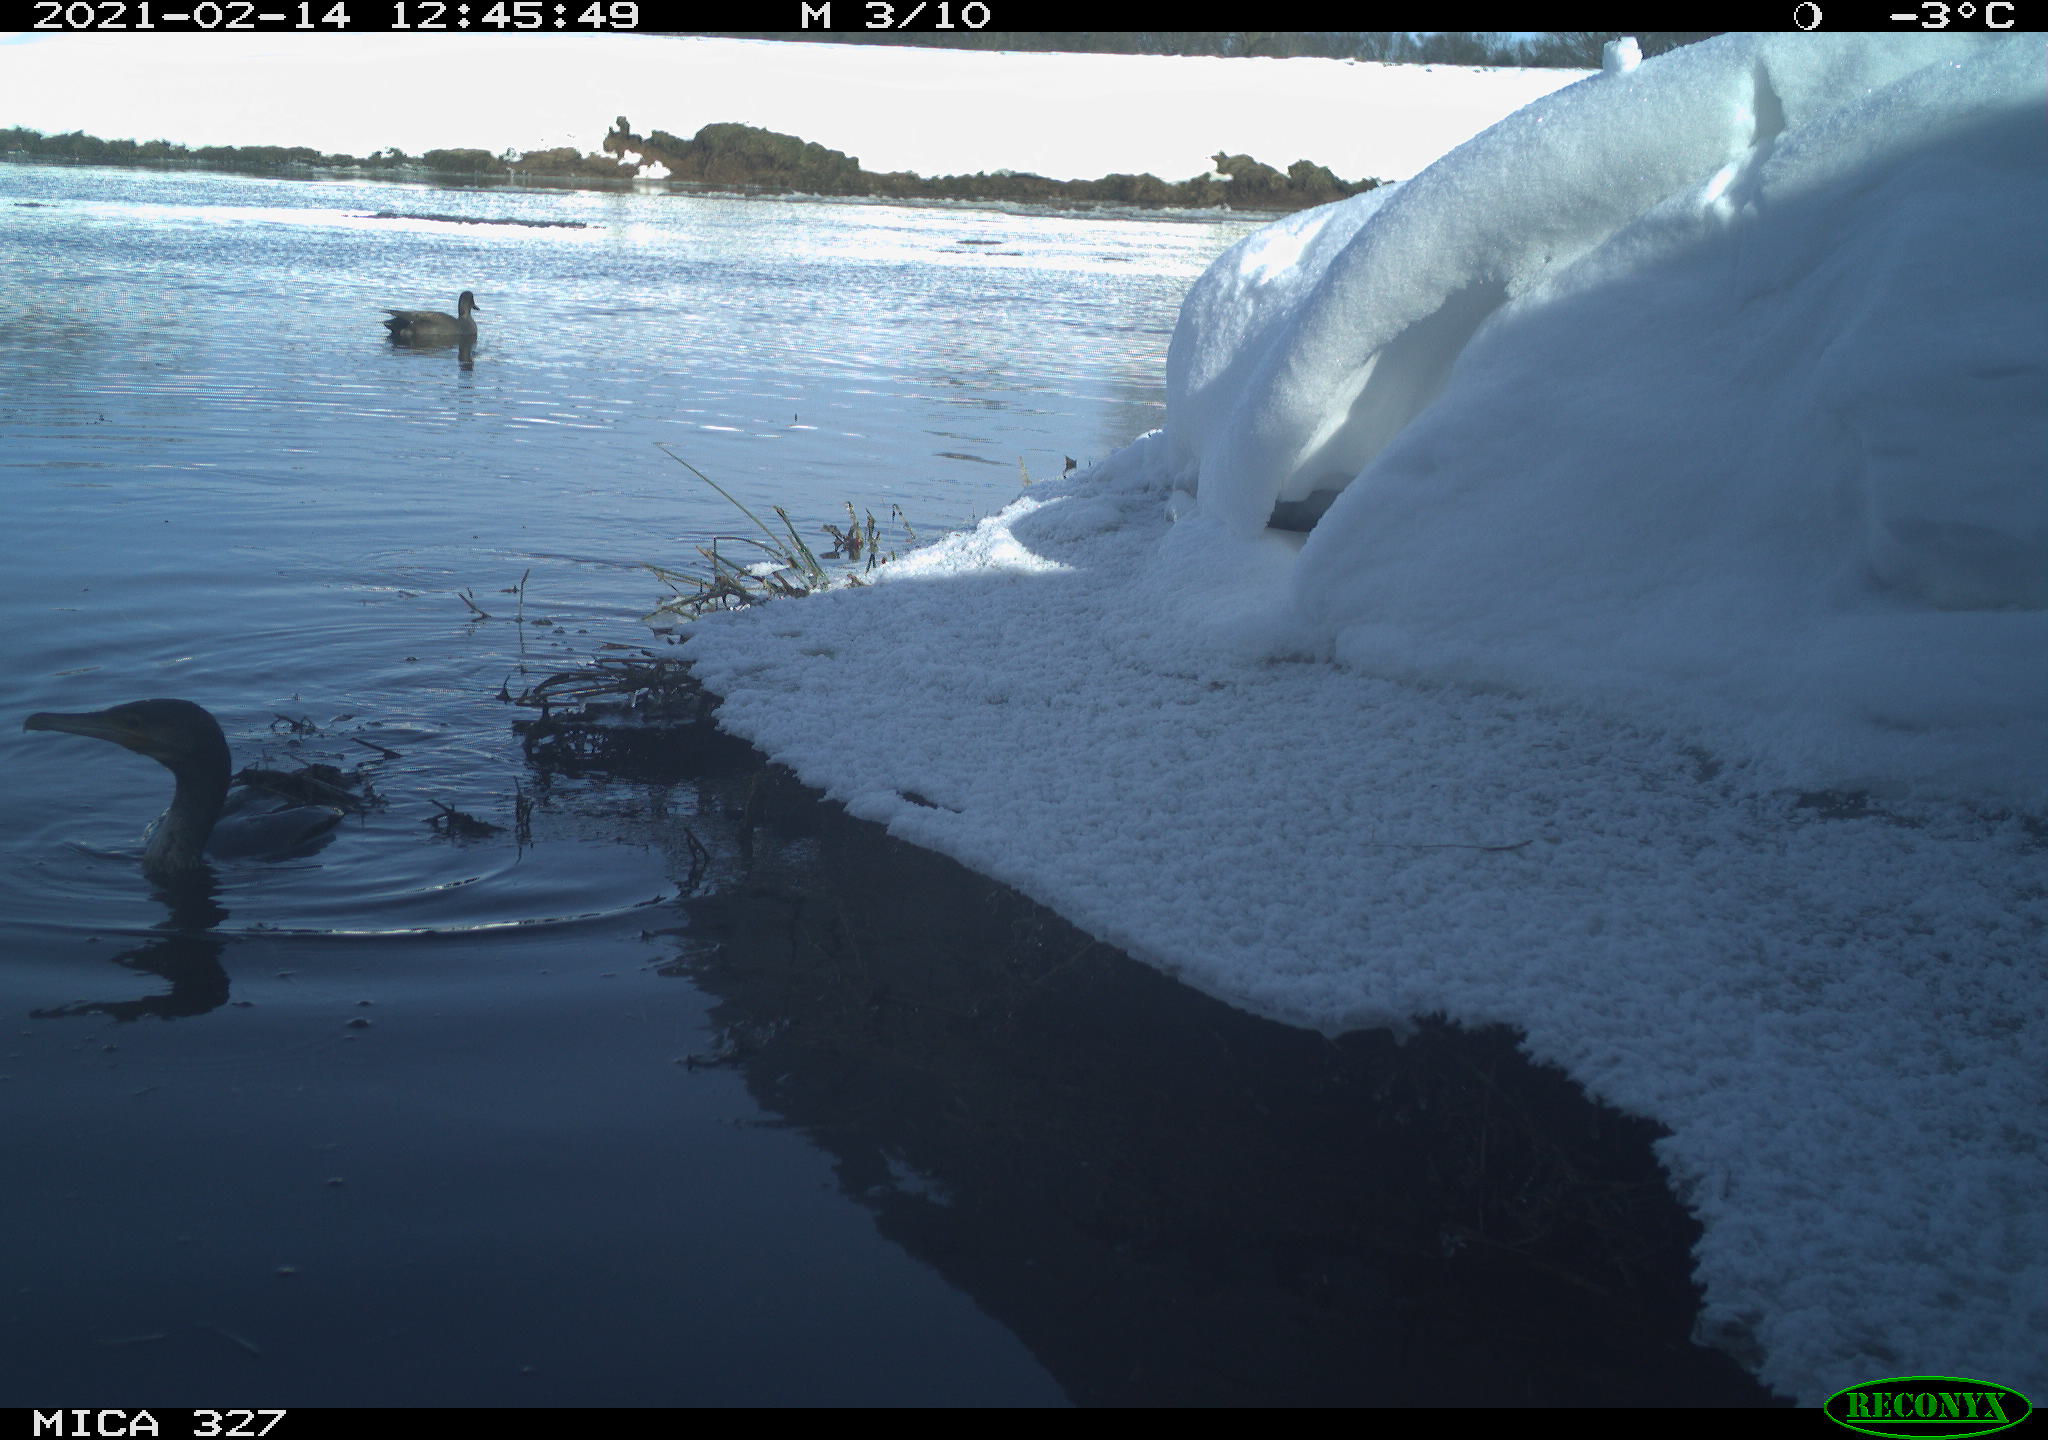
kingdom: Animalia
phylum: Chordata
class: Aves
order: Anseriformes
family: Anatidae
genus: Anas
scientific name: Anas
